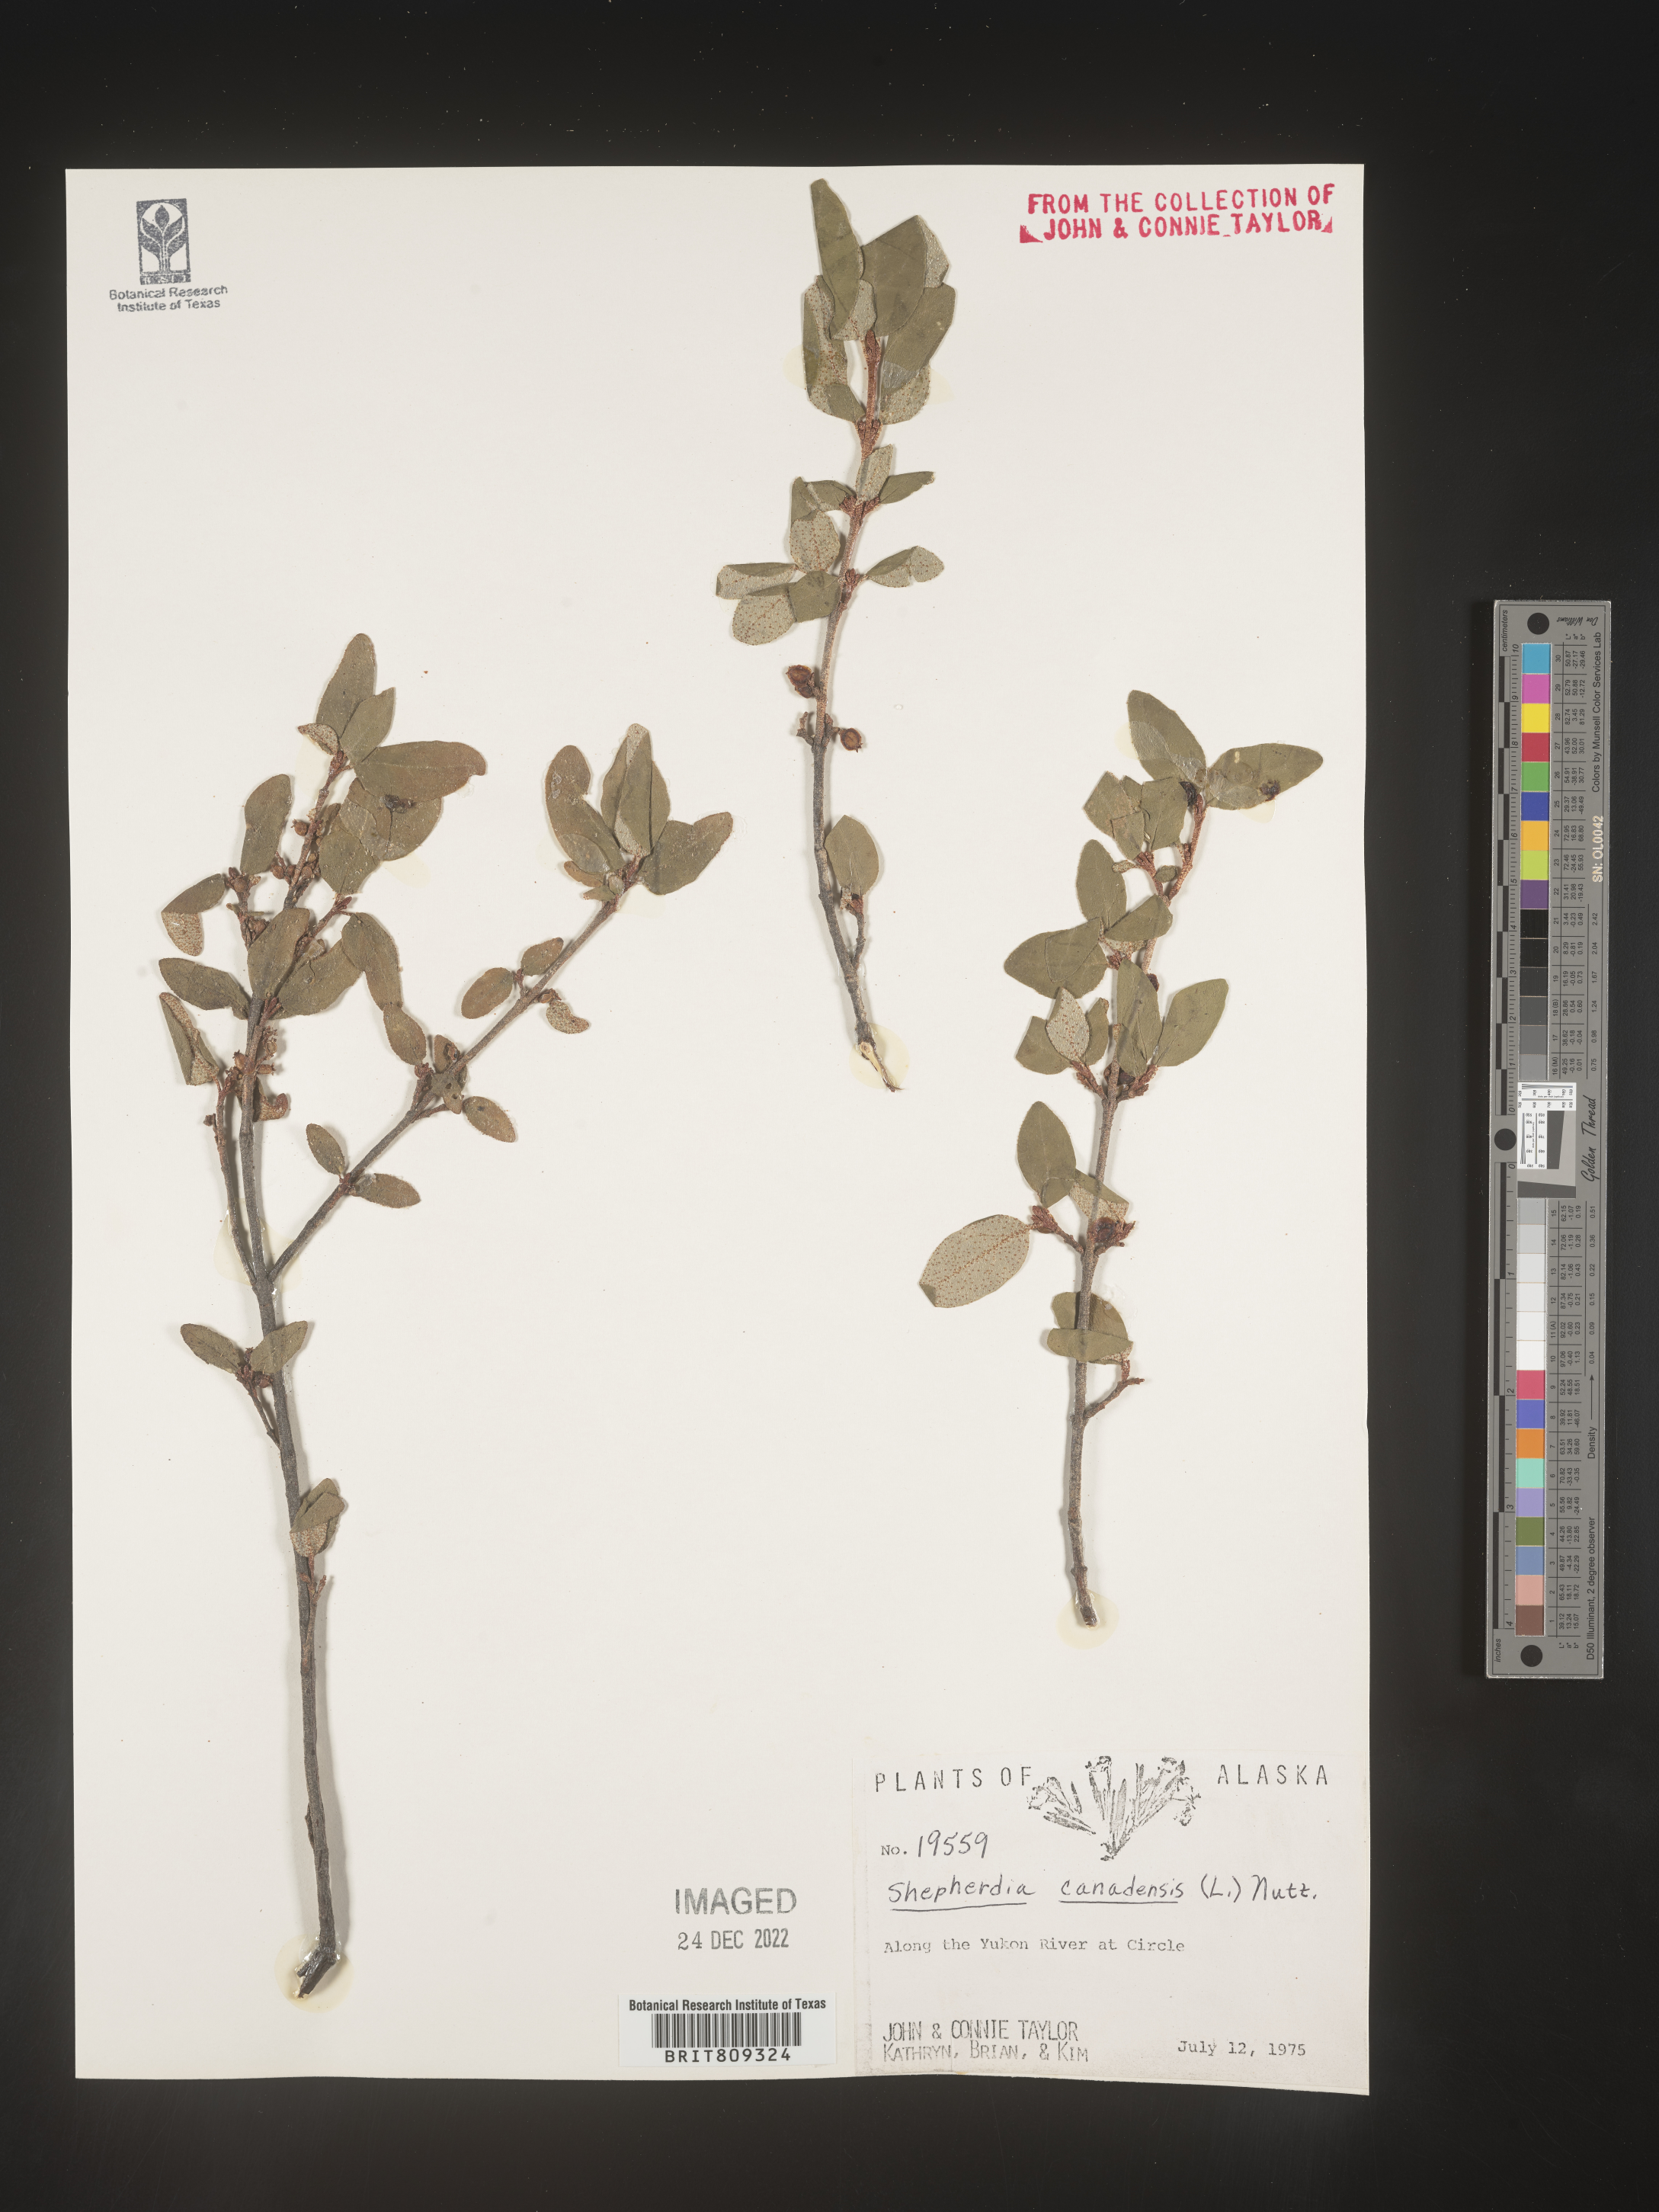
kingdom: Plantae
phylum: Tracheophyta
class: Magnoliopsida
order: Rosales
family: Elaeagnaceae
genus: Shepherdia
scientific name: Shepherdia canadensis
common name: Soapberry
